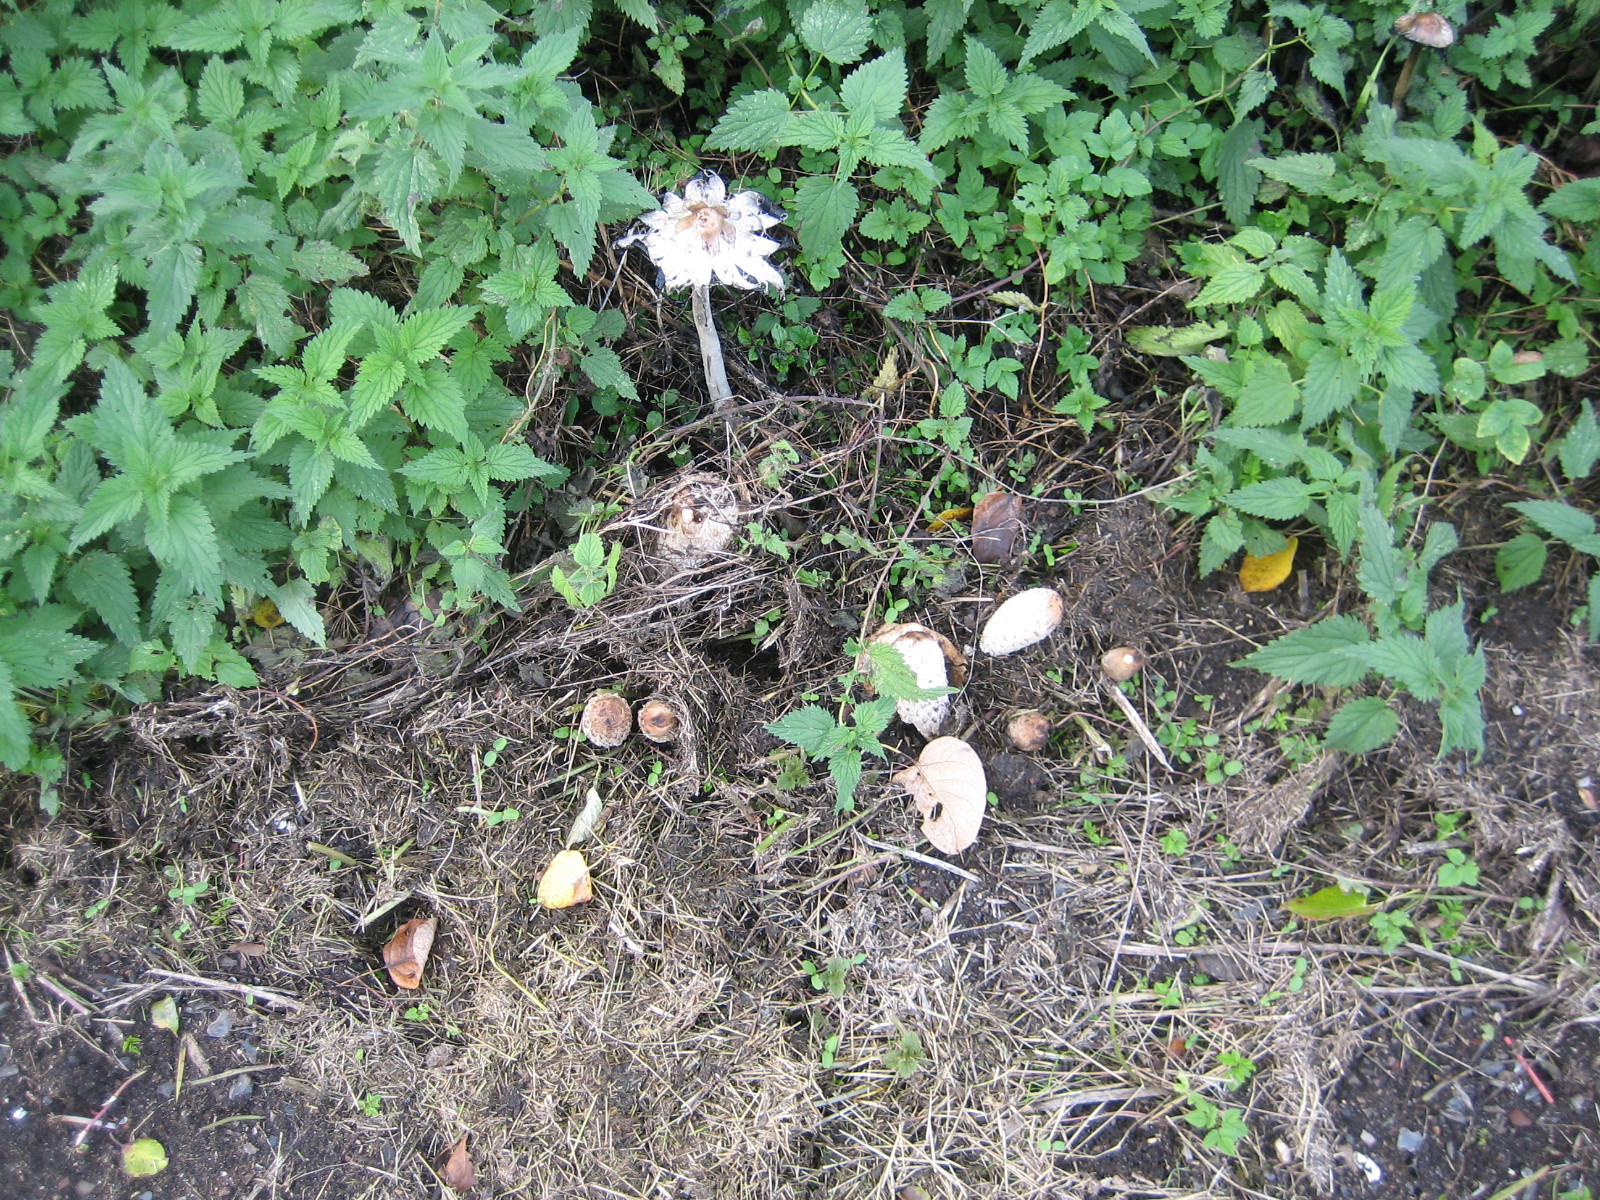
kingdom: Fungi
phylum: Basidiomycota
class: Agaricomycetes
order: Agaricales
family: Agaricaceae
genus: Coprinus
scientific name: Coprinus comatus
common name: stor parykhat
